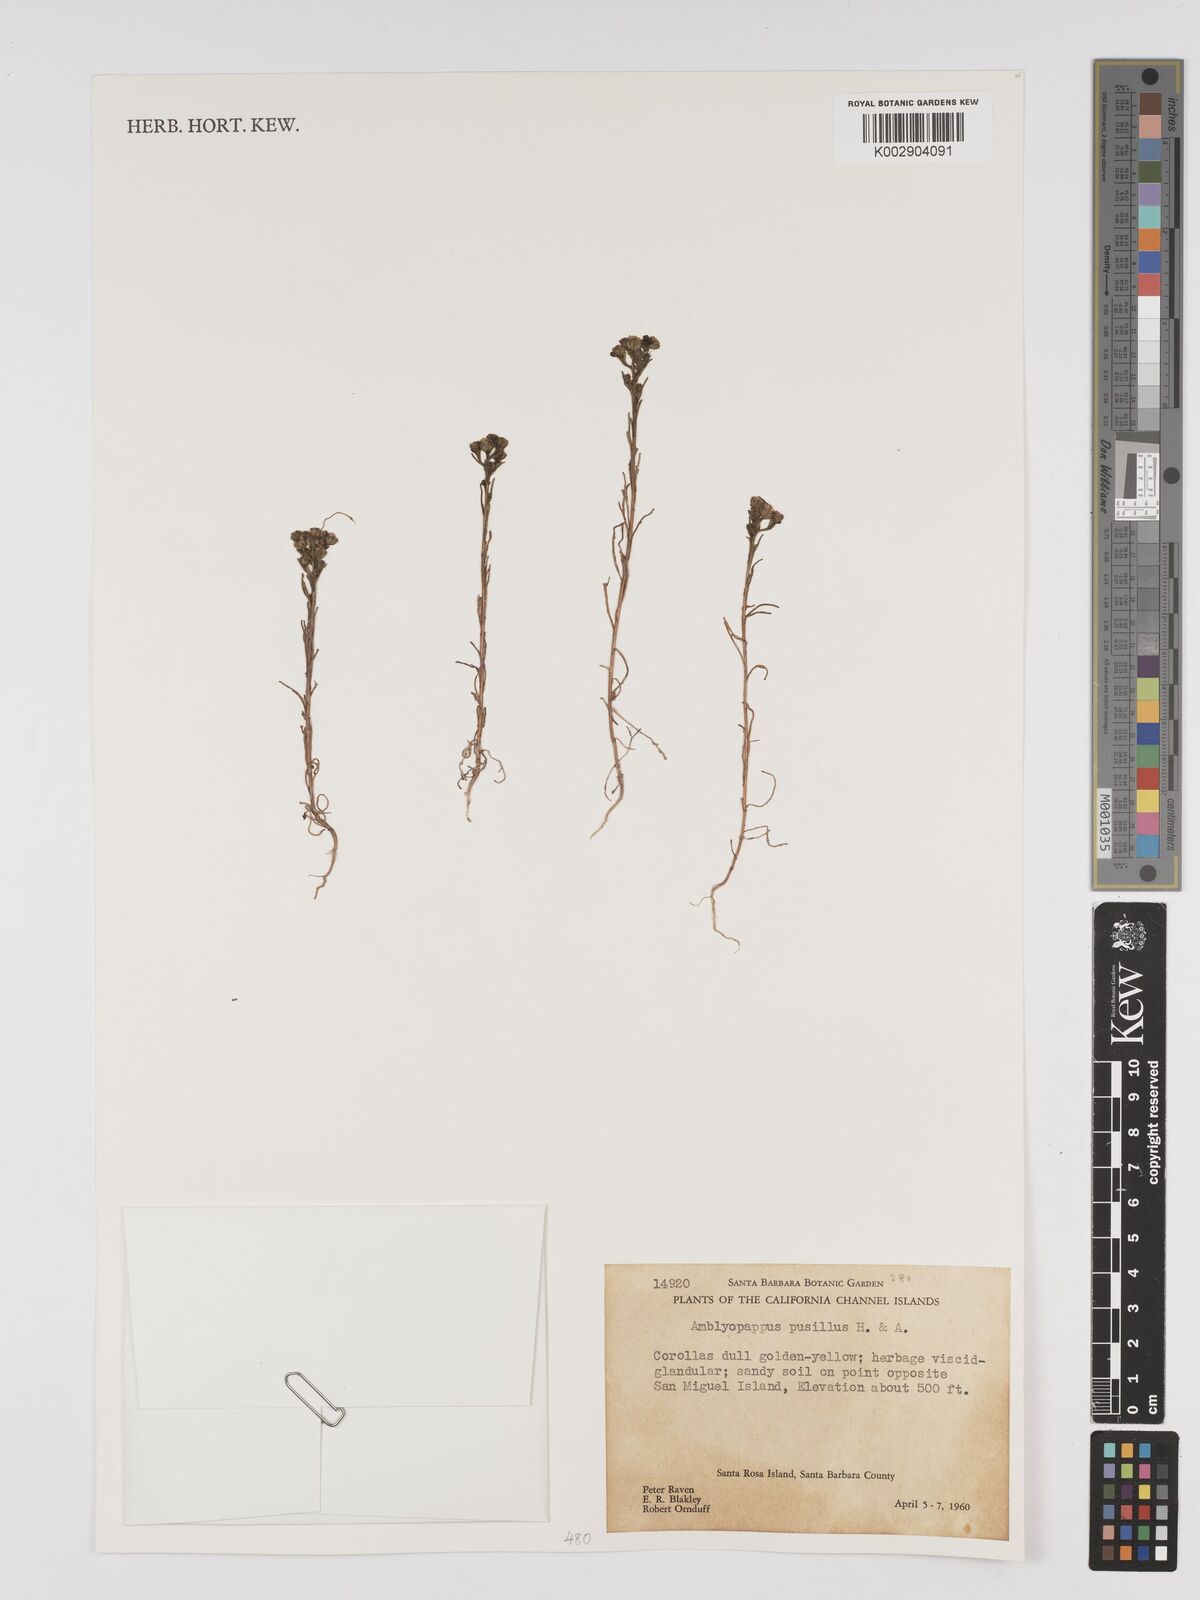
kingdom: Plantae
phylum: Tracheophyta
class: Magnoliopsida
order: Asterales
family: Asteraceae
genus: Amblyopappus
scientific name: Amblyopappus pusillus
